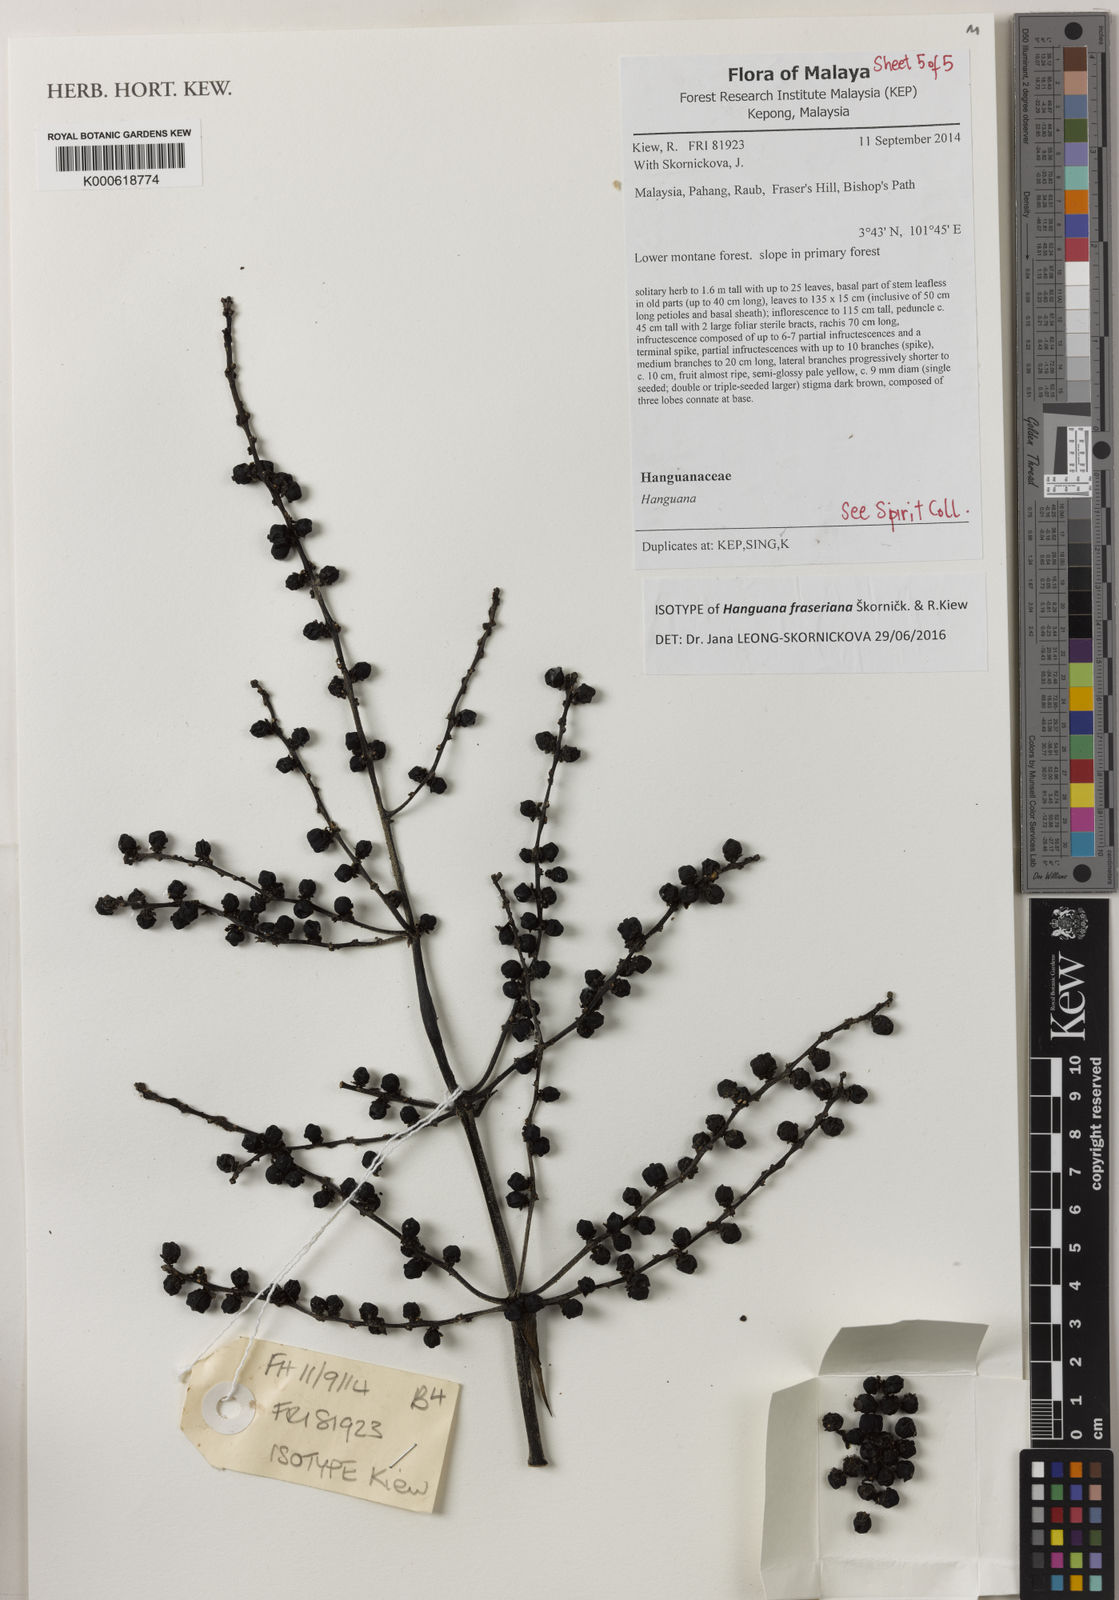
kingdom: Plantae
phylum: Tracheophyta
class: Liliopsida
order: Commelinales
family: Hanguanaceae
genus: Hanguana
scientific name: Hanguana fraseriana
